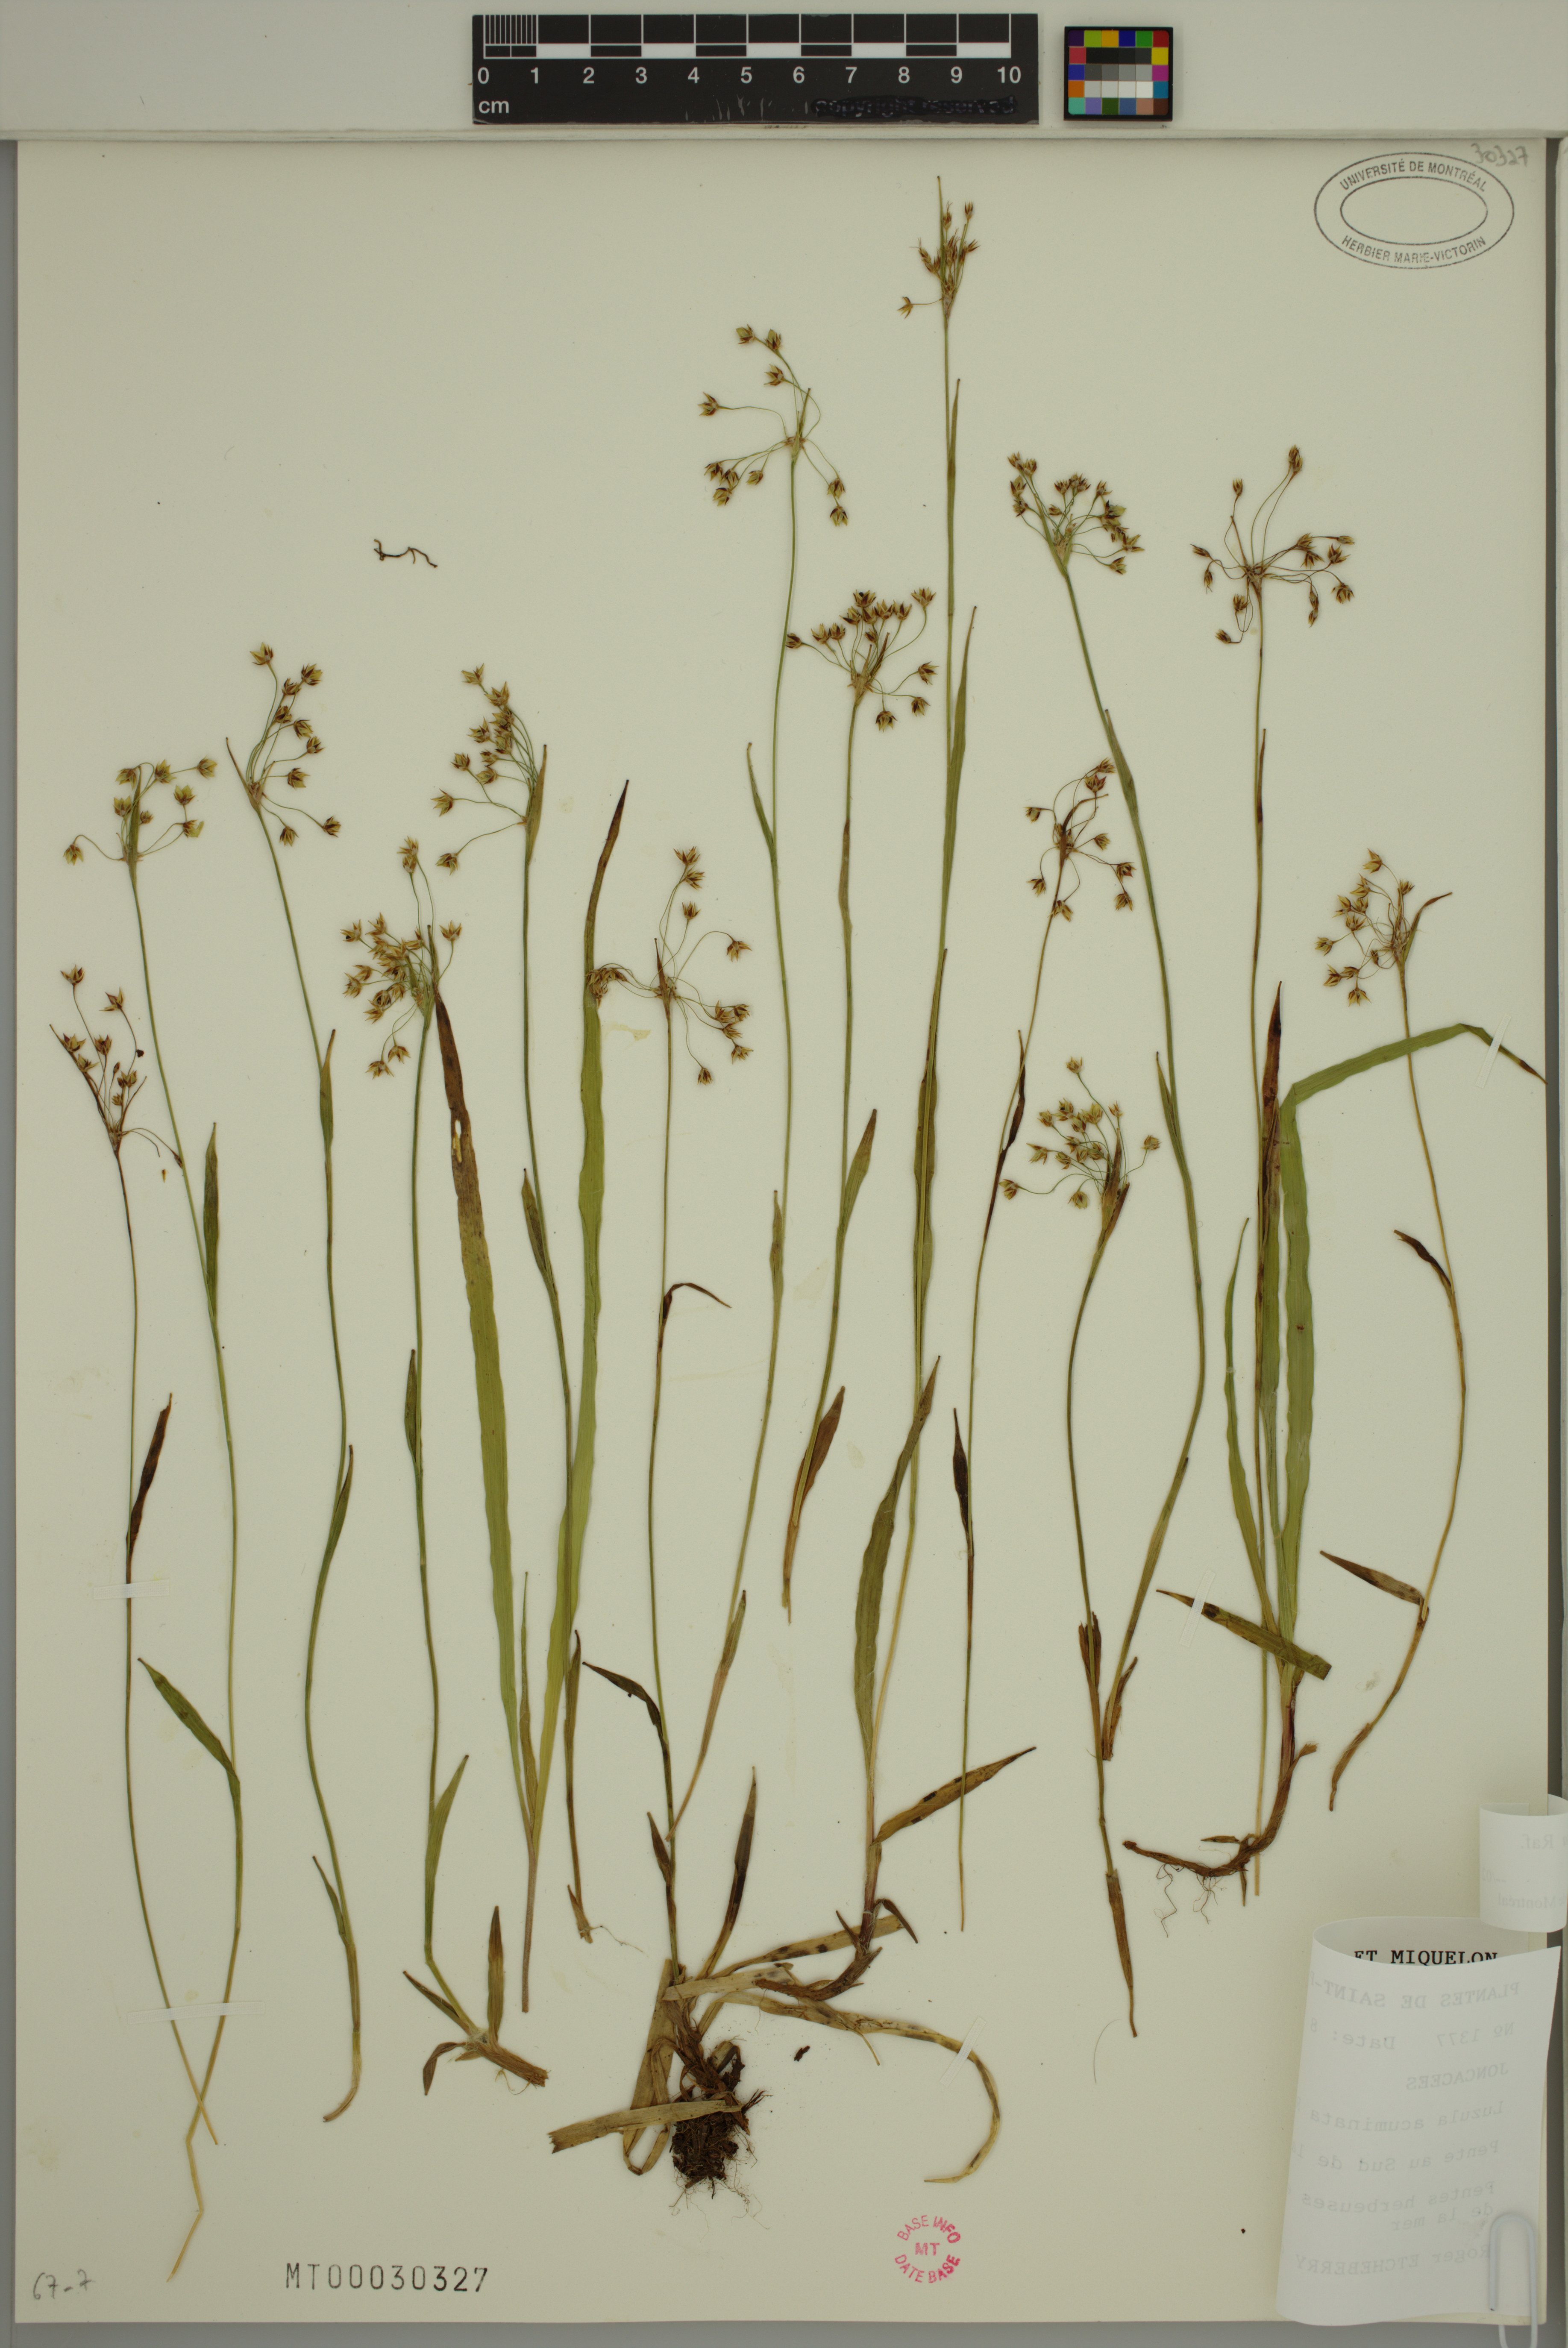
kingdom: Plantae
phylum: Tracheophyta
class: Liliopsida
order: Poales
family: Juncaceae
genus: Luzula
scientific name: Luzula acuminata
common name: Hairy woodrush
